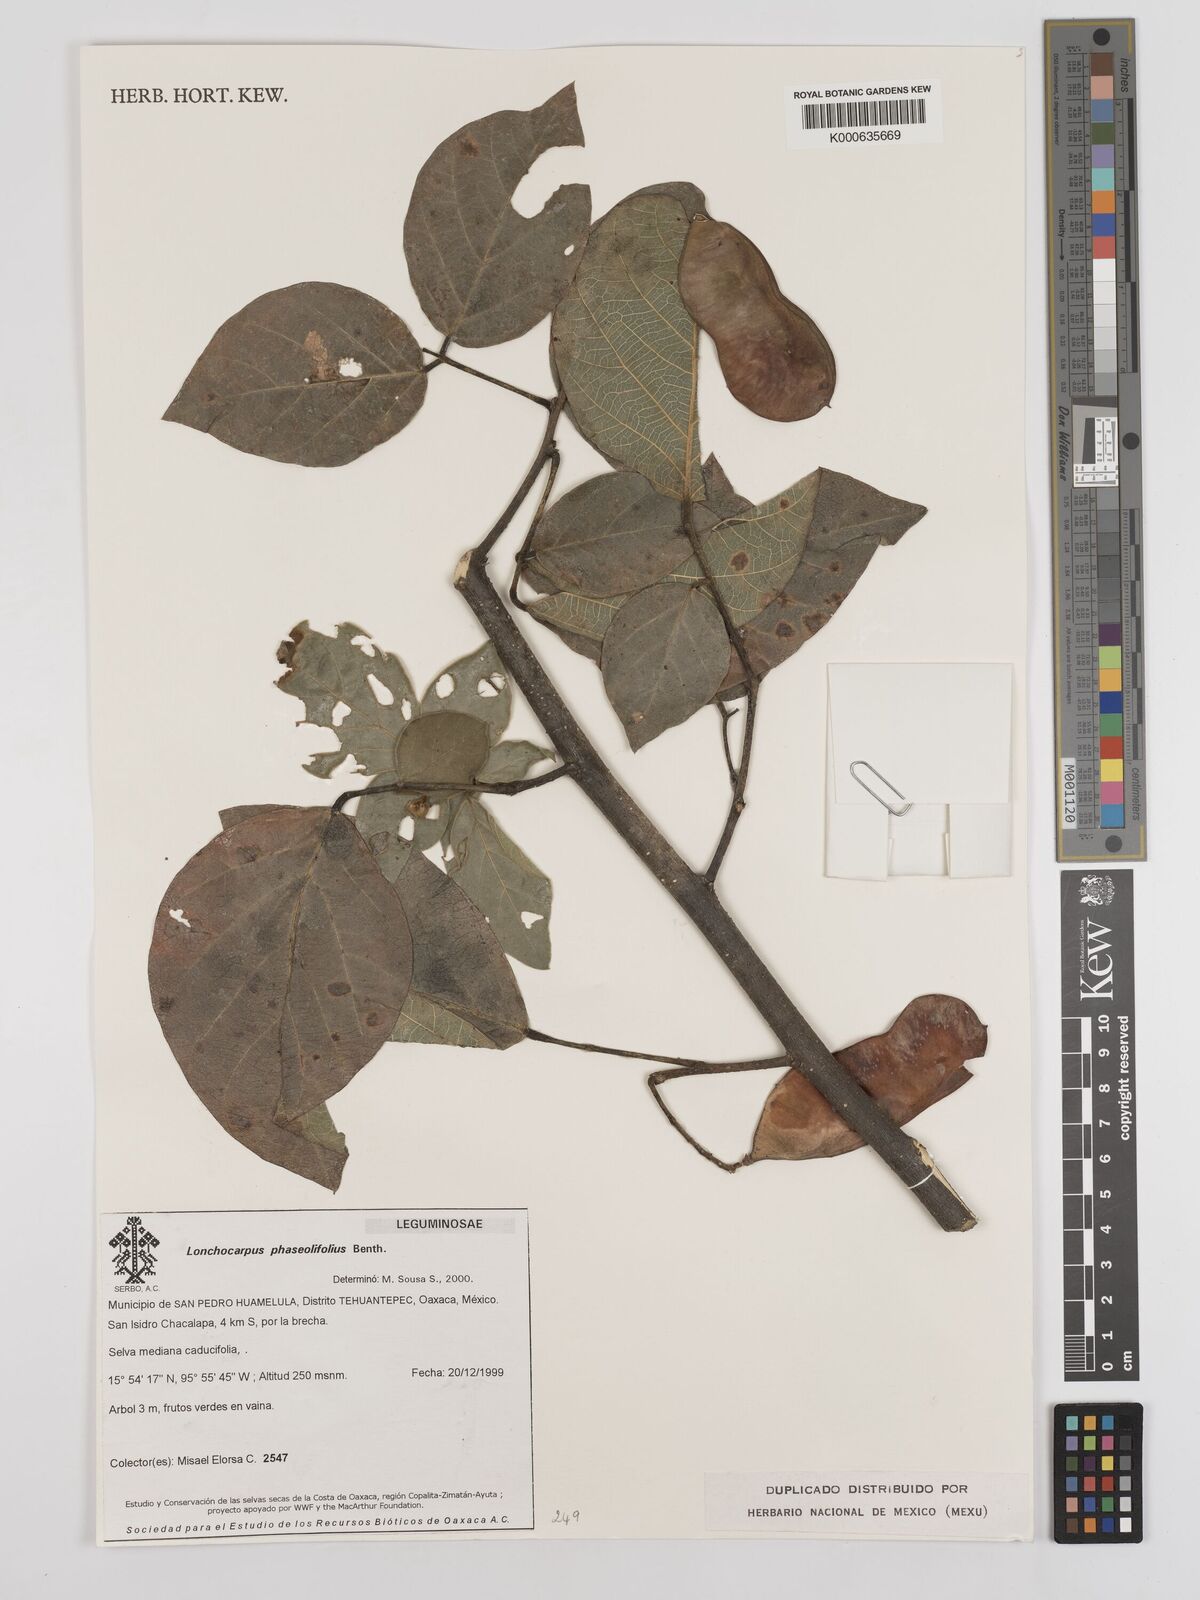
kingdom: Plantae
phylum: Tracheophyta
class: Magnoliopsida
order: Fabales
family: Fabaceae
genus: Lonchocarpus
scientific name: Lonchocarpus phaseolifolius
